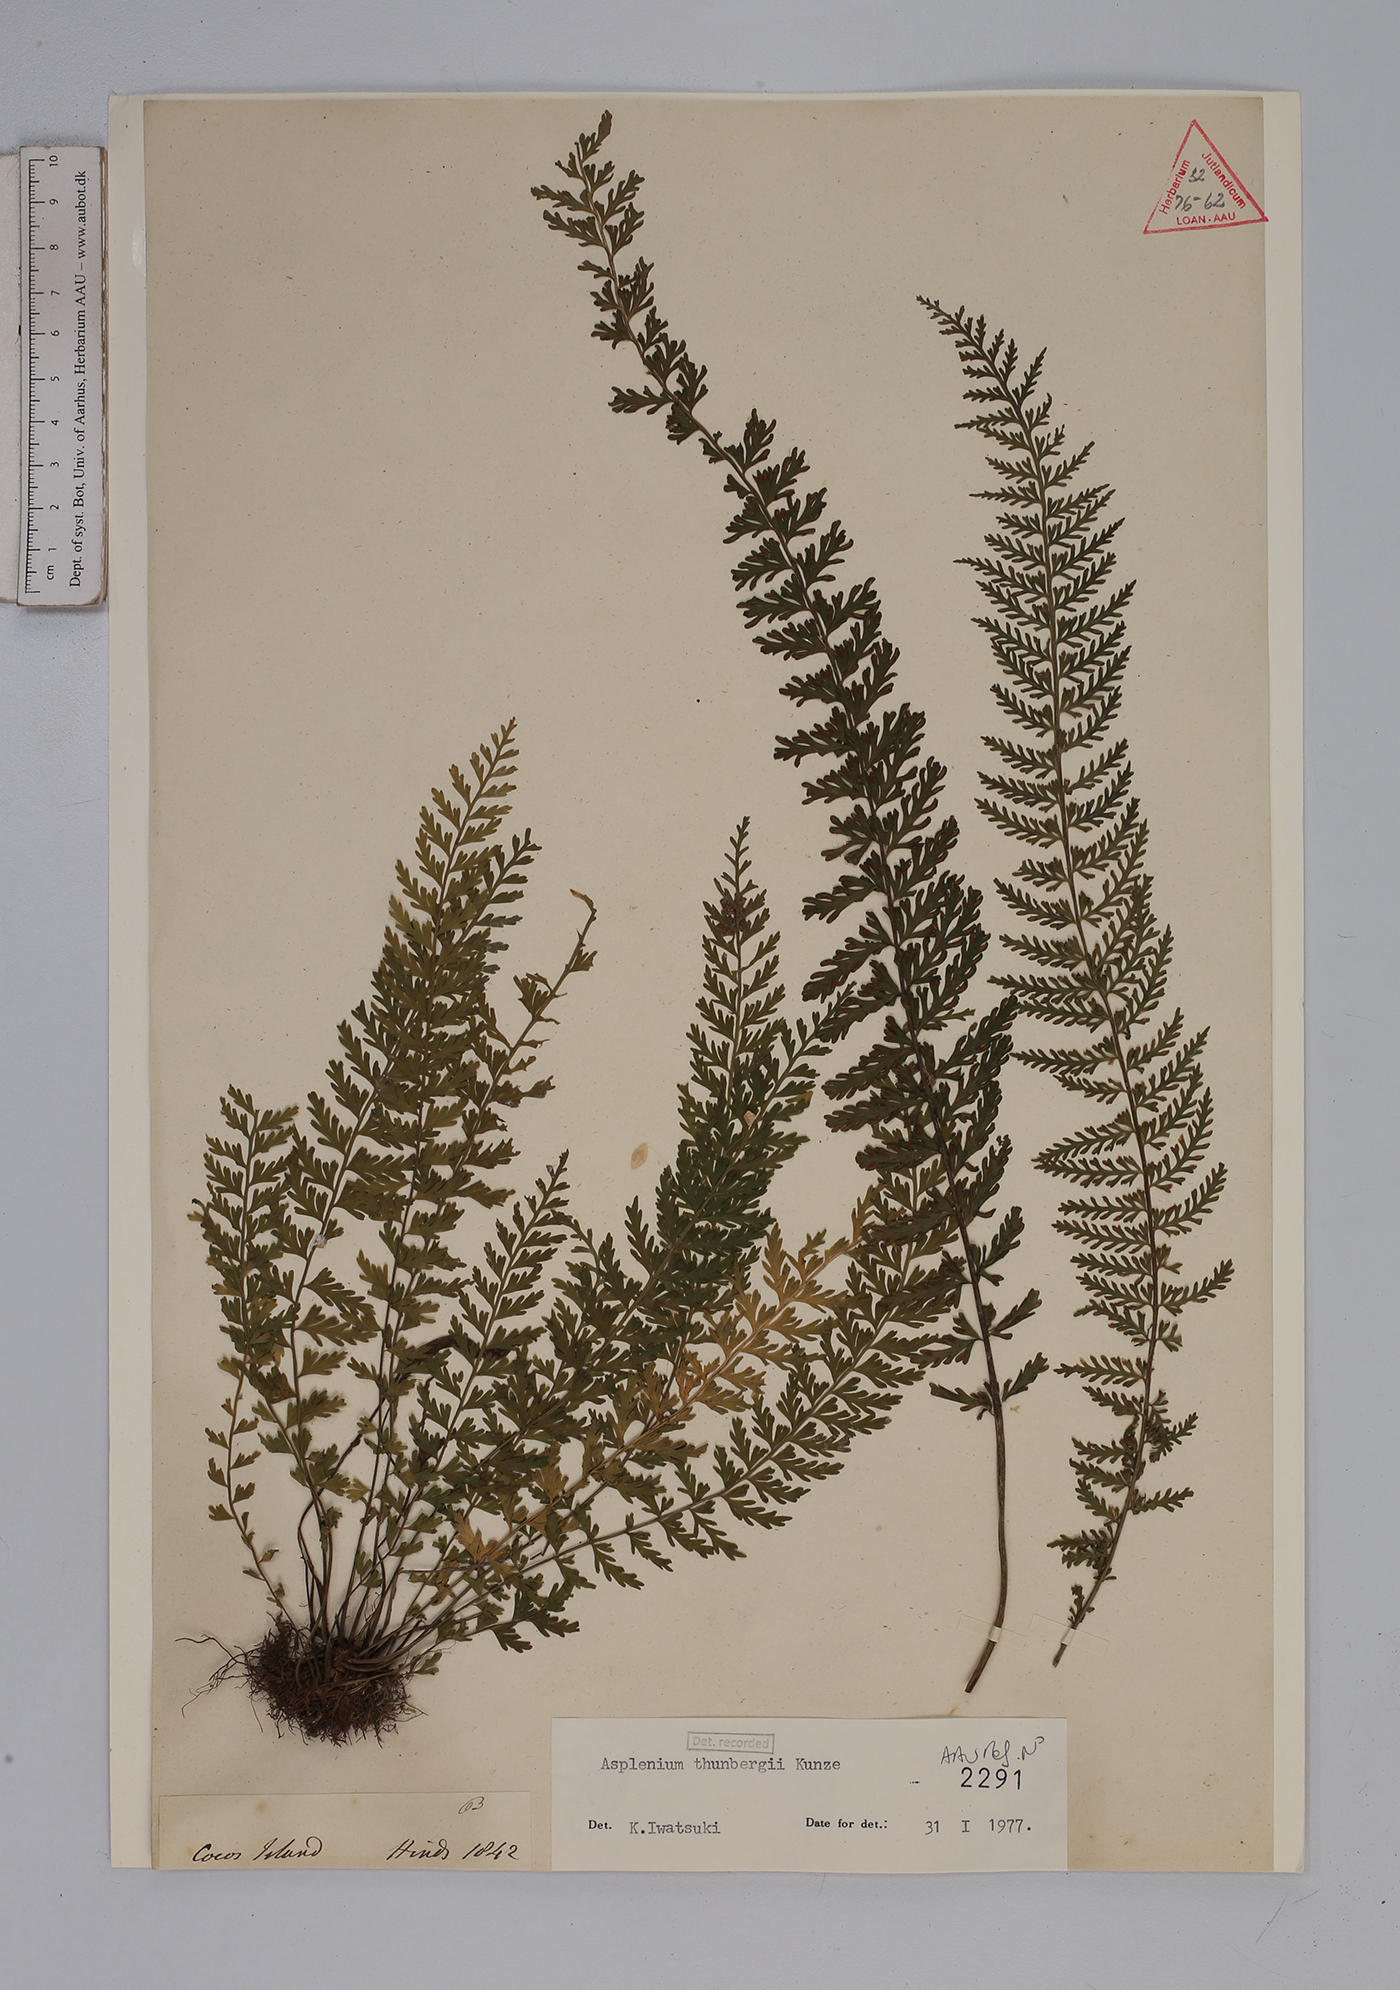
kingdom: Plantae
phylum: Tracheophyta
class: Polypodiopsida
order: Polypodiales
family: Aspleniaceae
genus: Asplenium
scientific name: Asplenium thunbergii
